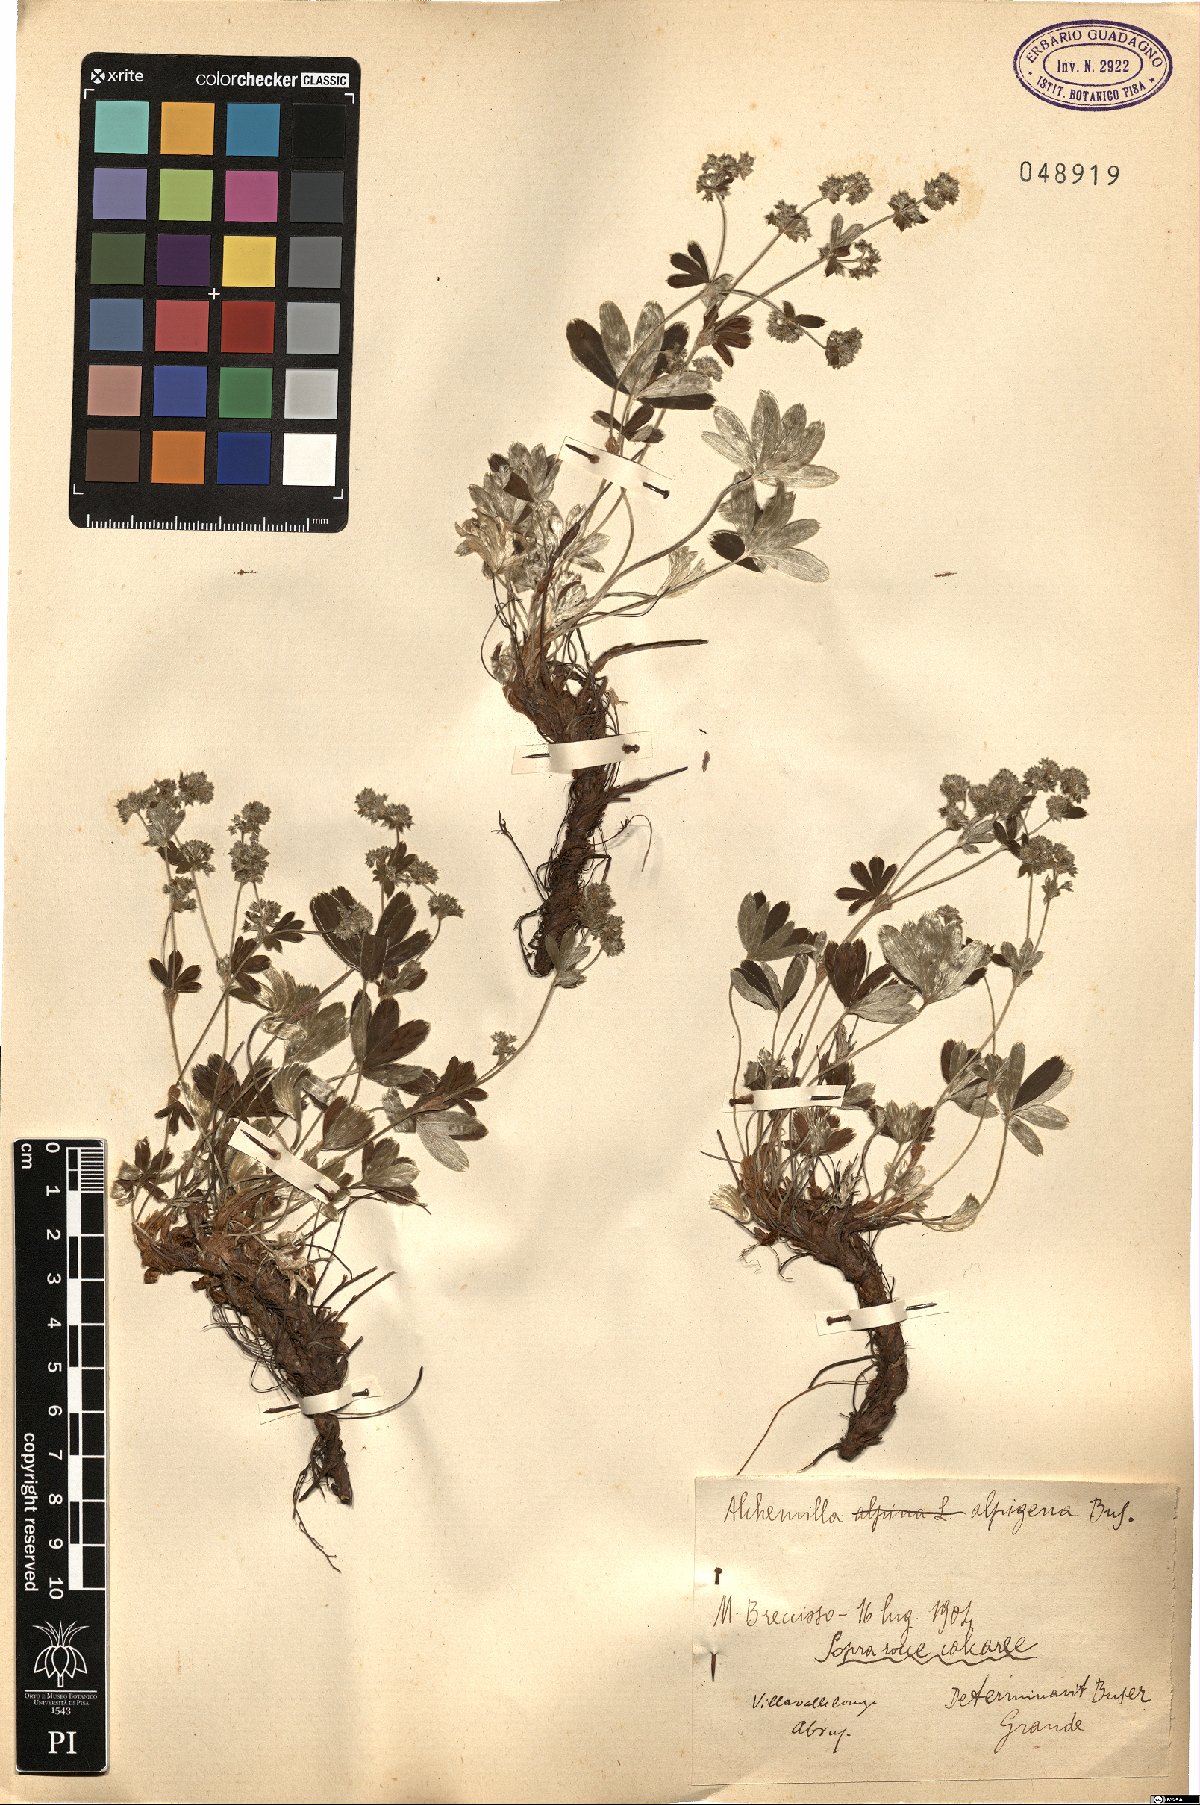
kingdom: Plantae
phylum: Tracheophyta
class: Magnoliopsida
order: Rosales
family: Rosaceae
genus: Alchemilla
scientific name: Alchemilla alpinula
